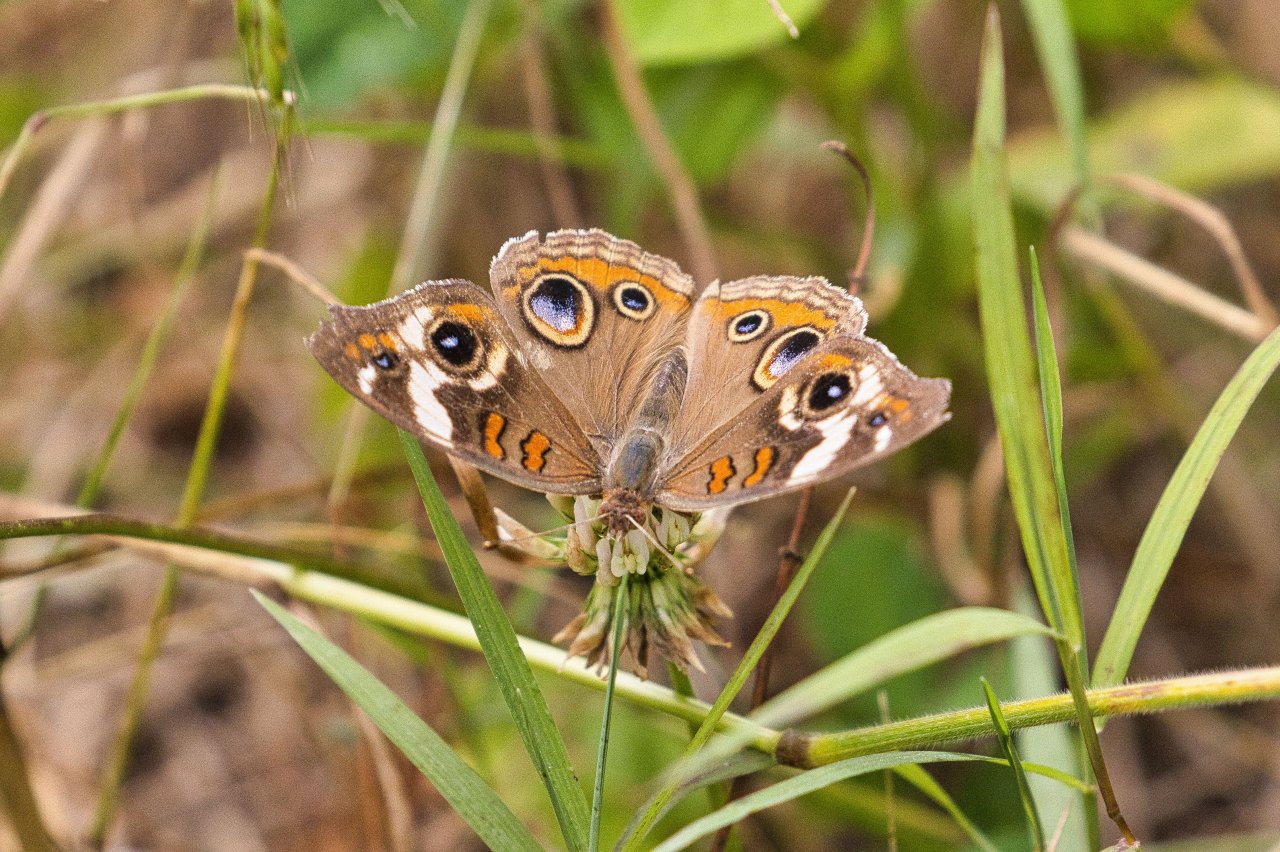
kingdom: Animalia
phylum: Arthropoda
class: Insecta
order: Lepidoptera
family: Nymphalidae
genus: Junonia
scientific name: Junonia coenia
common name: Common Buckeye
